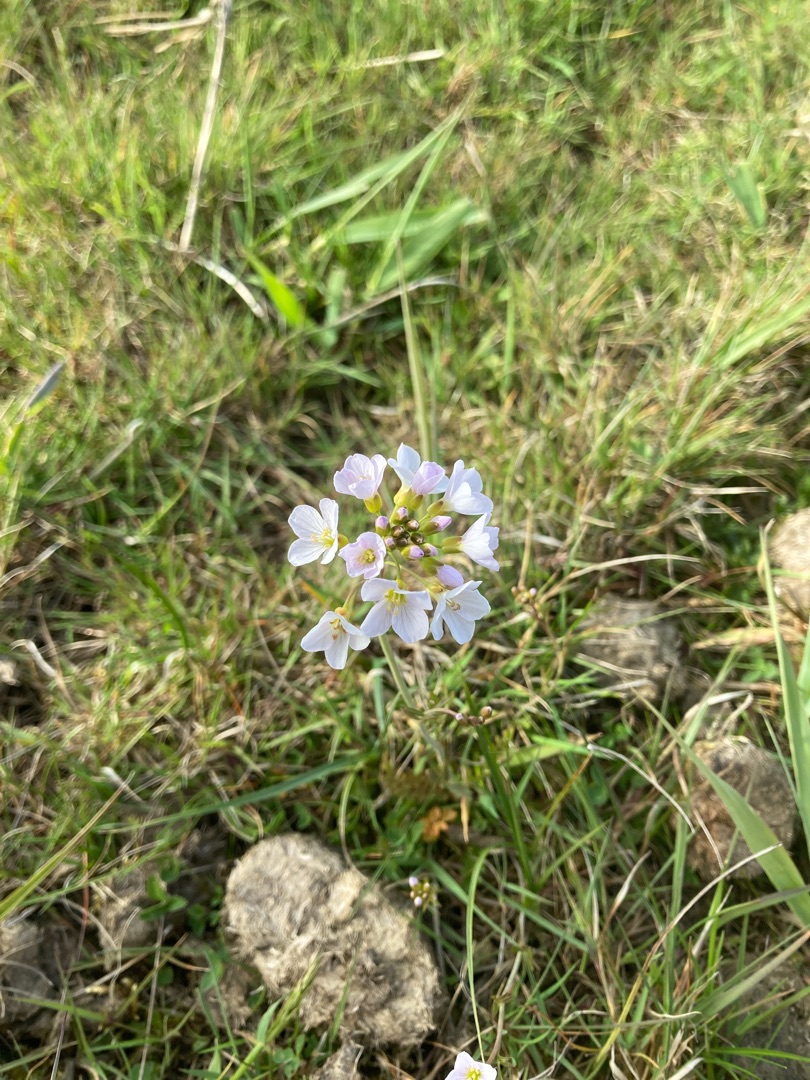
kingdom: Plantae
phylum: Tracheophyta
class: Magnoliopsida
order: Brassicales
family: Brassicaceae
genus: Cardamine
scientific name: Cardamine pratensis
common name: Engkarse
